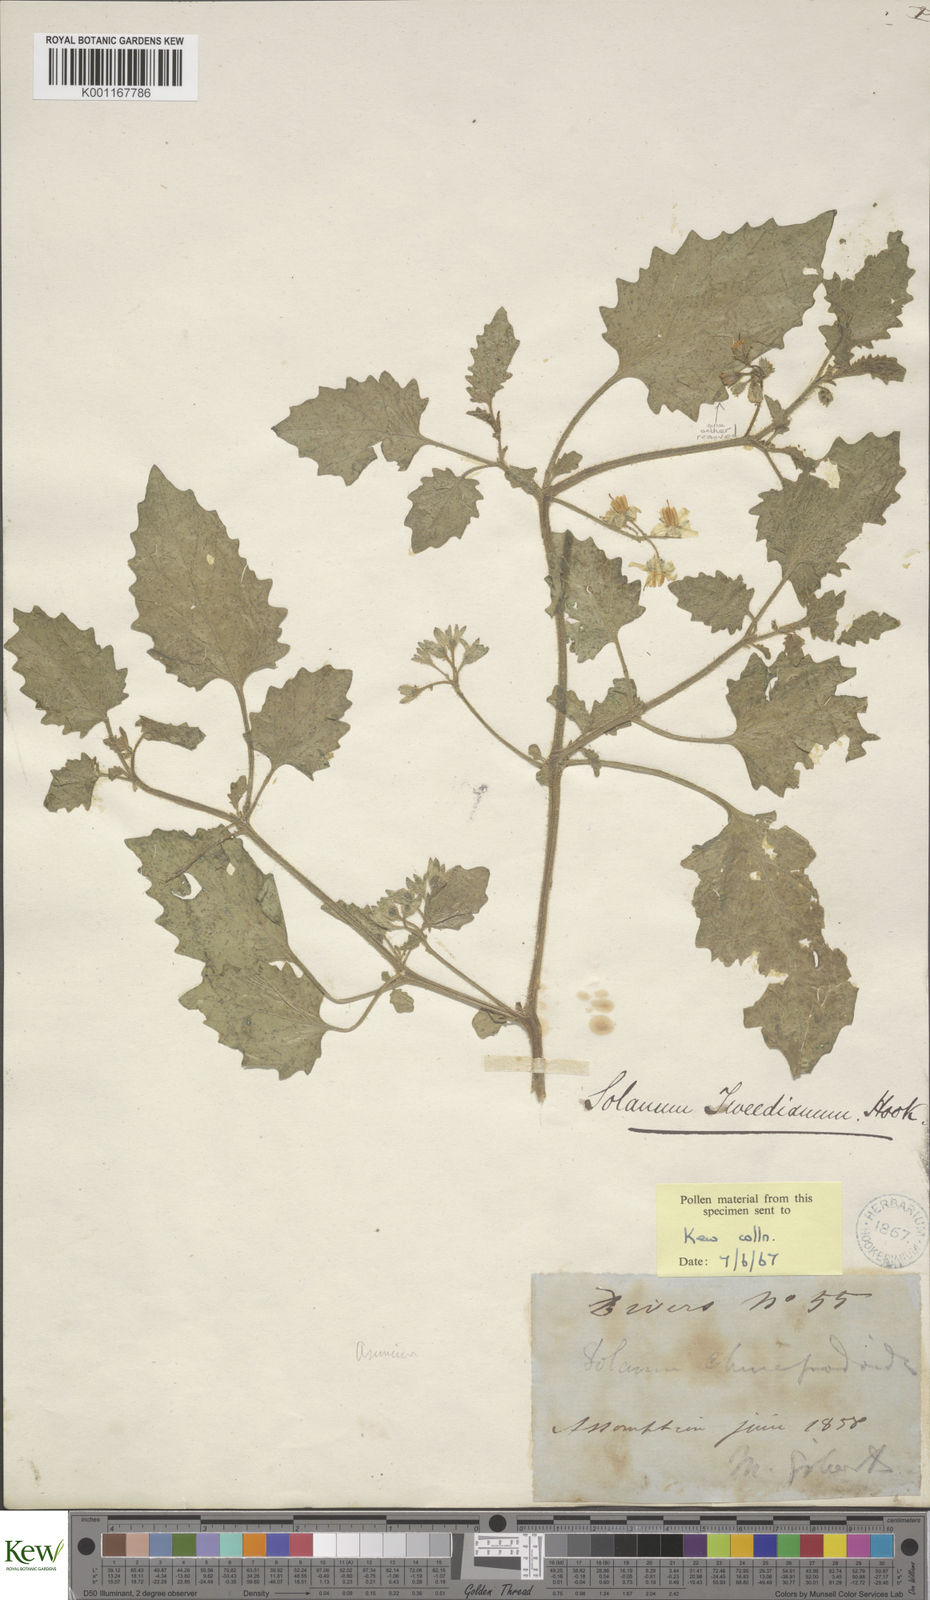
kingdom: Plantae
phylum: Tracheophyta
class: Magnoliopsida
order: Solanales
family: Solanaceae
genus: Solanum
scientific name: Solanum
